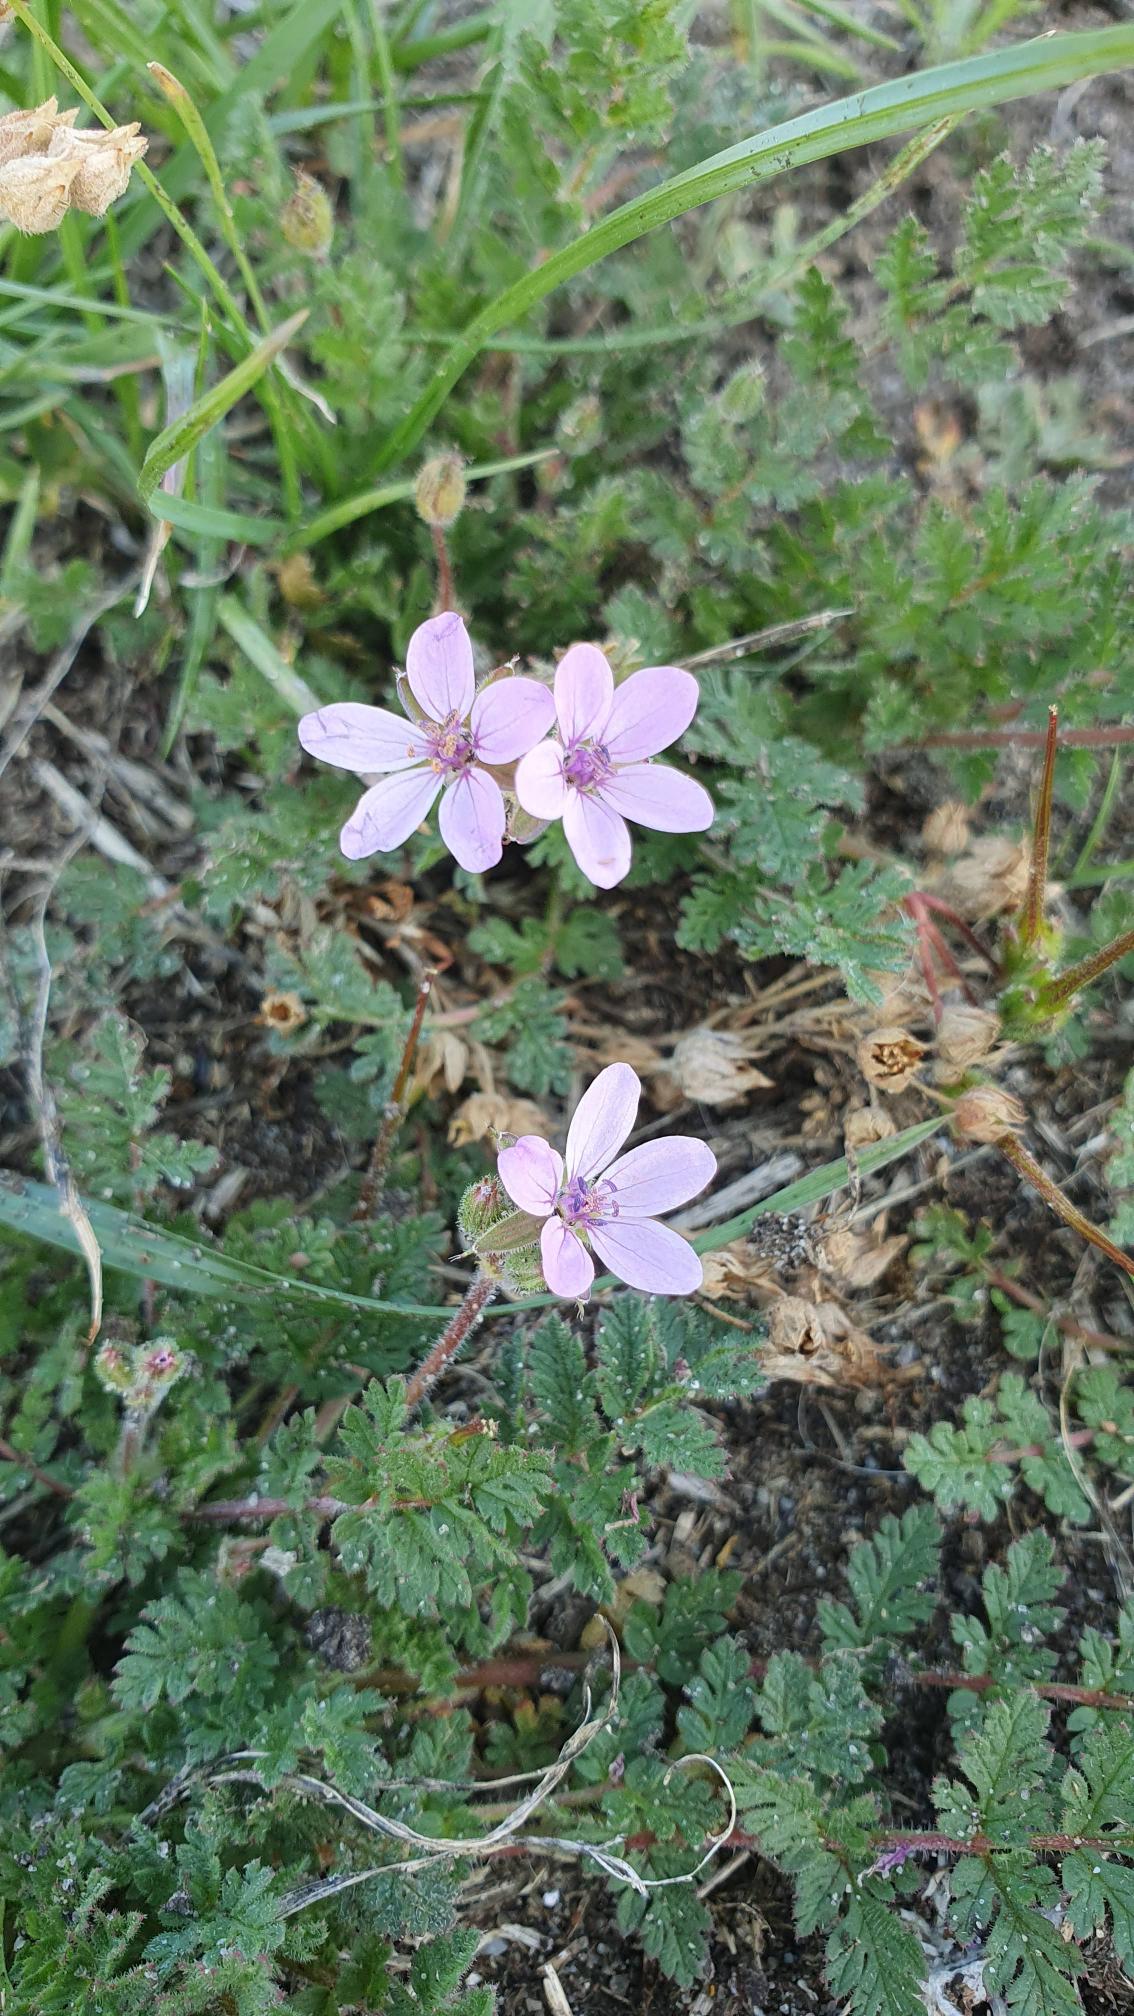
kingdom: Plantae
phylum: Tracheophyta
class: Magnoliopsida
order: Geraniales
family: Geraniaceae
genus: Erodium
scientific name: Erodium cicutarium
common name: Hejrenæb
